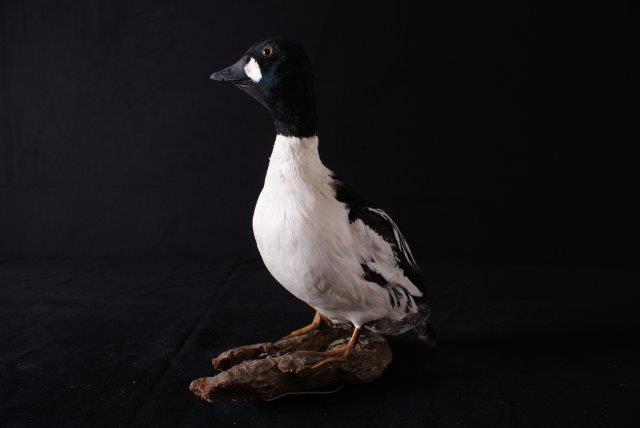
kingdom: Animalia
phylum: Chordata
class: Aves
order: Anseriformes
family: Anatidae
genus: Bucephala
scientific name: Bucephala clangula
